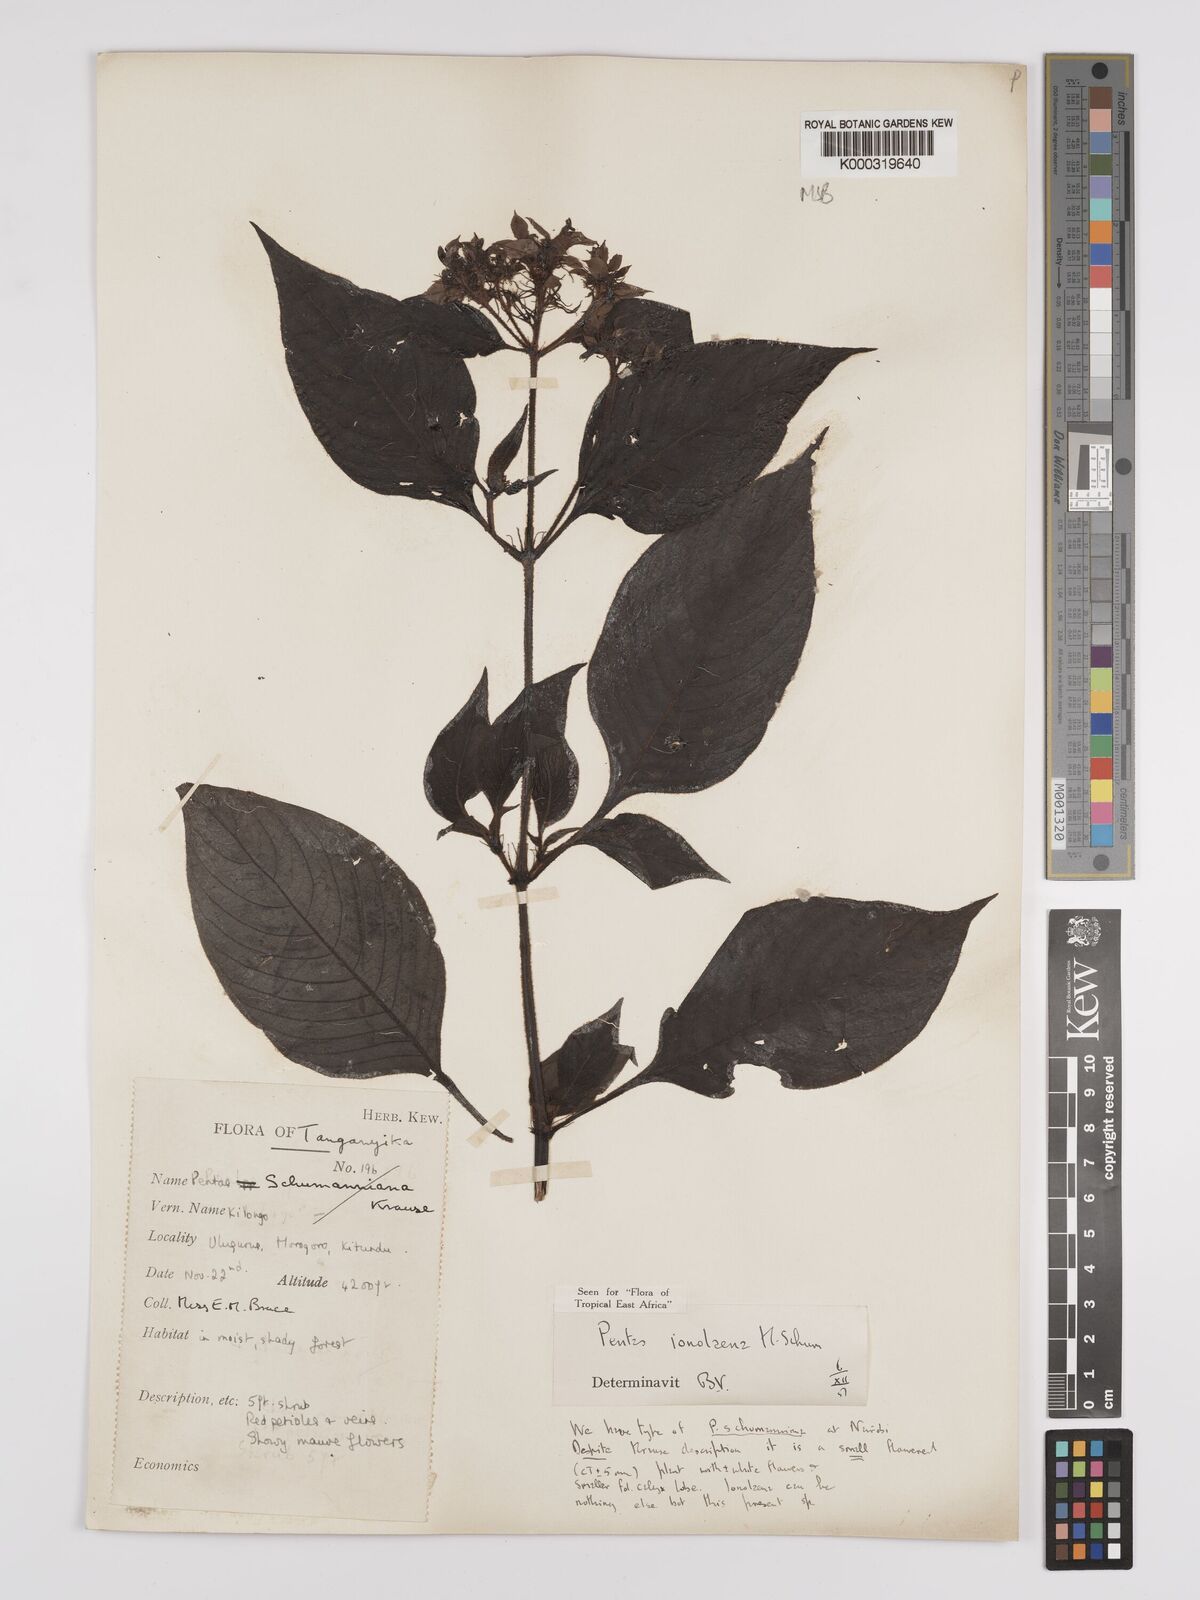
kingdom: Plantae
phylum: Tracheophyta
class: Magnoliopsida
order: Gentianales
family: Rubiaceae
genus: Phyllopentas
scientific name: Phyllopentas ionolaena
